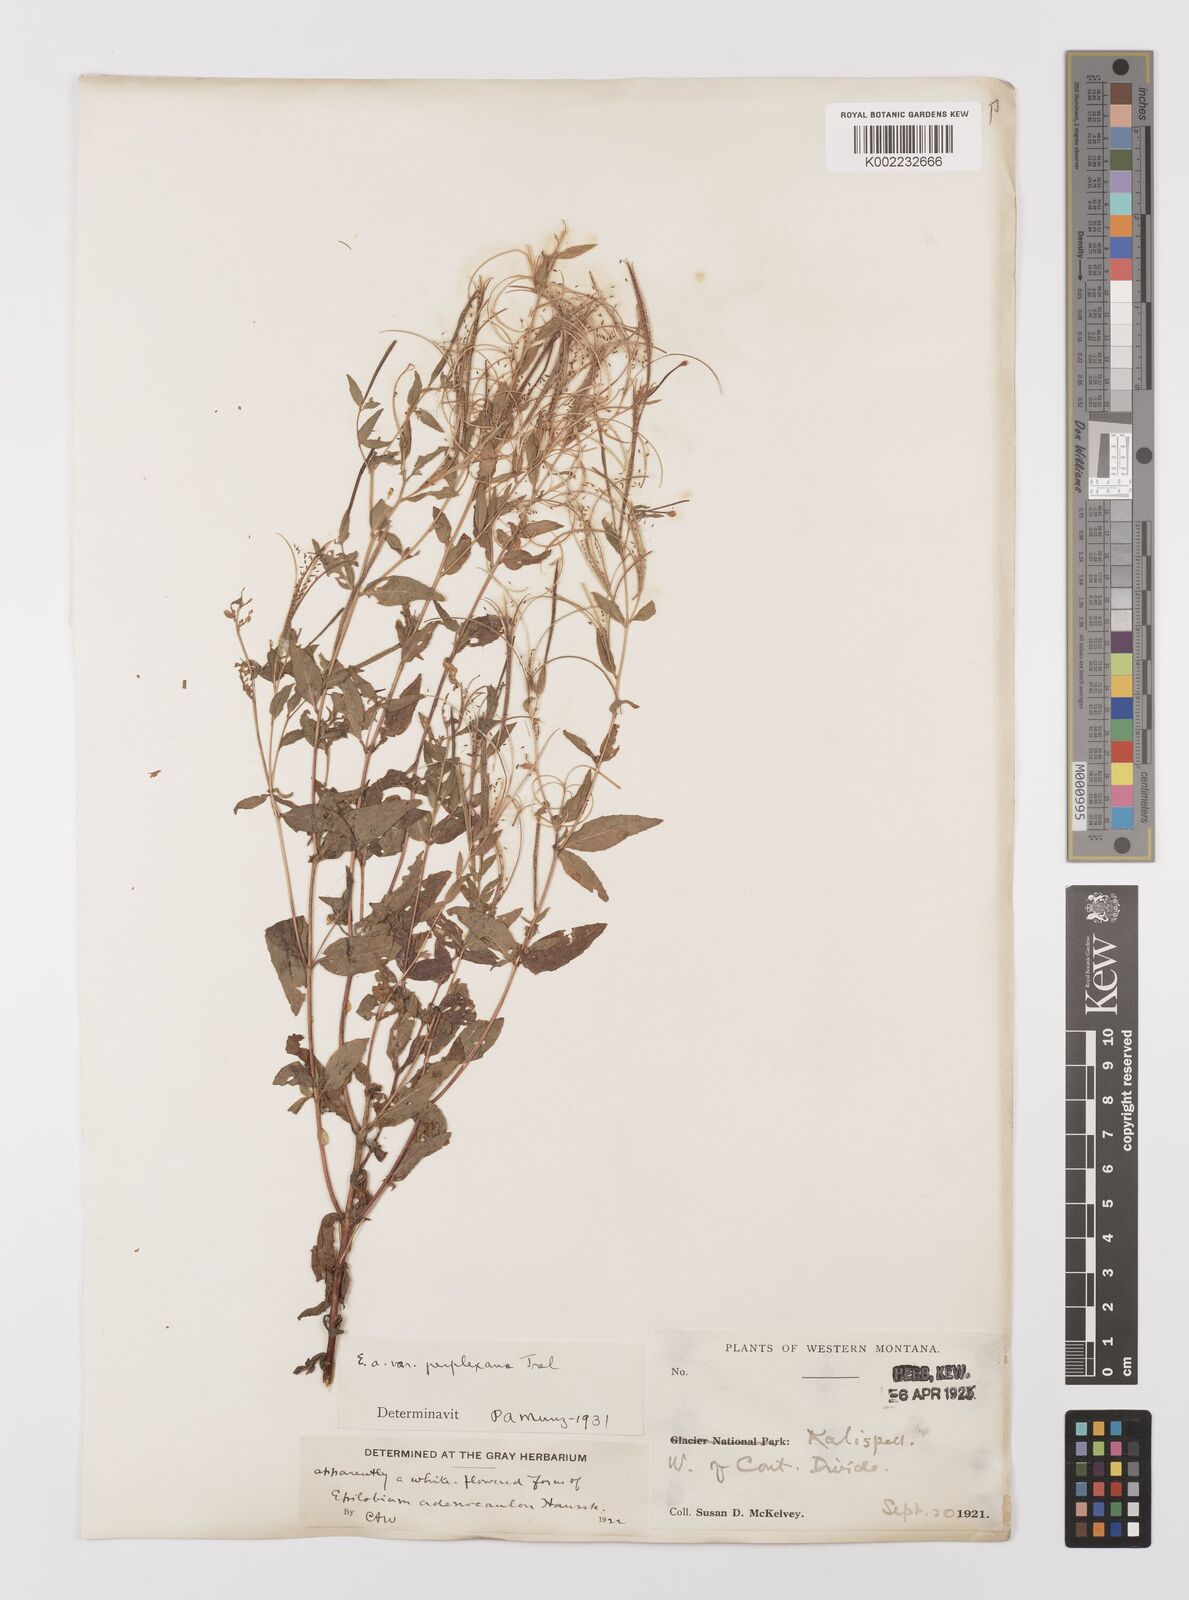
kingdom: Plantae
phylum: Tracheophyta
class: Magnoliopsida
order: Myrtales
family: Onagraceae
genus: Epilobium
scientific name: Epilobium ciliatum
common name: American willowherb
